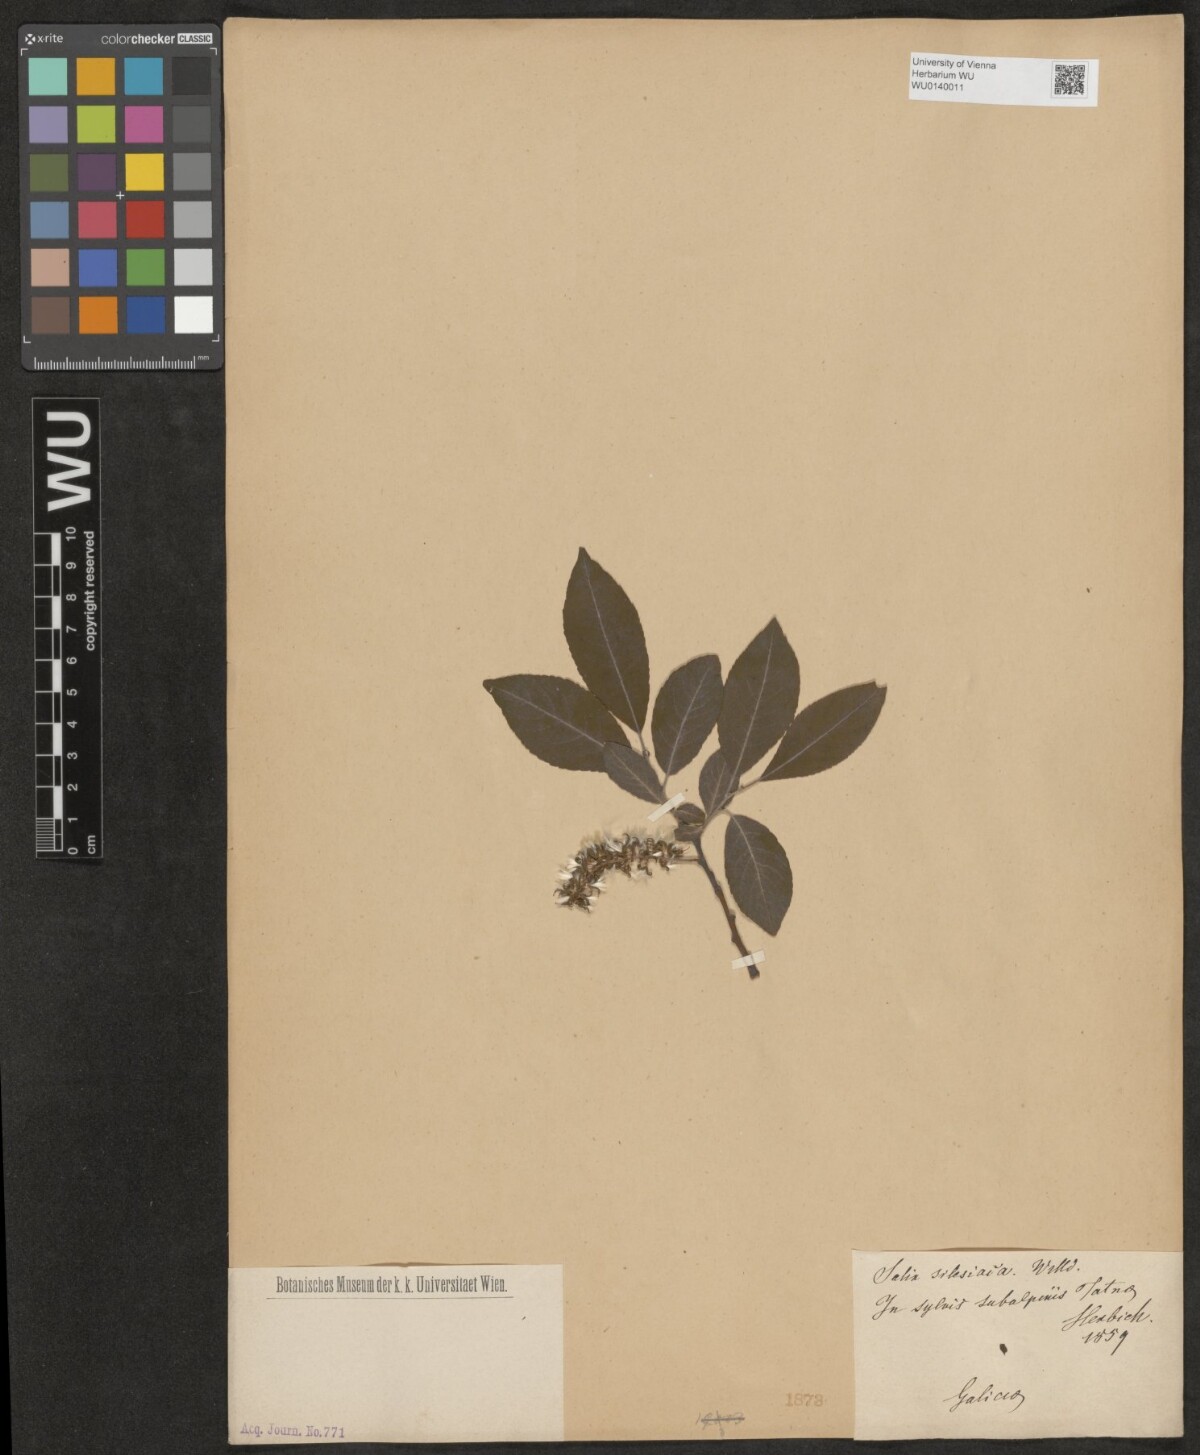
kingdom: Plantae
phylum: Tracheophyta
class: Magnoliopsida
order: Malpighiales
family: Salicaceae
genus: Salix
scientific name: Salix silesiaca
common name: Silesian willow
